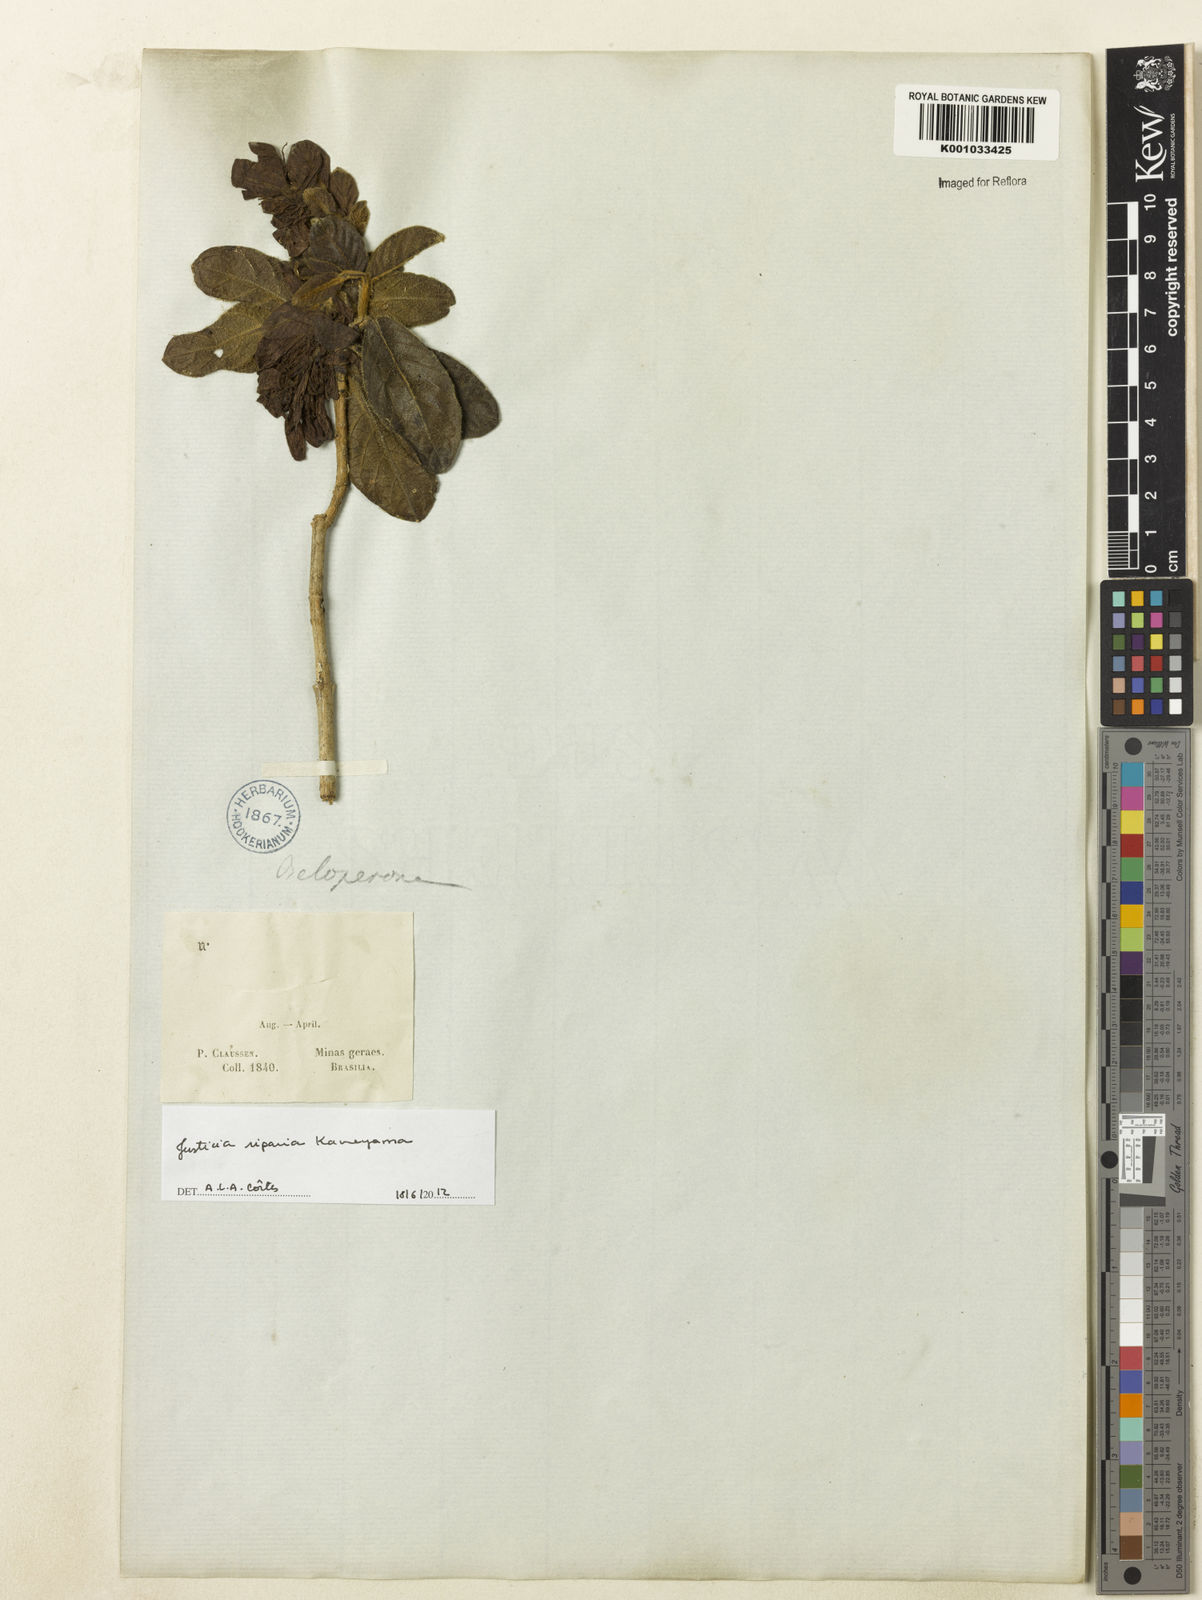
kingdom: Plantae
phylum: Tracheophyta
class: Magnoliopsida
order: Lamiales
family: Acanthaceae
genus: Justicia
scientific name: Justicia riparia
